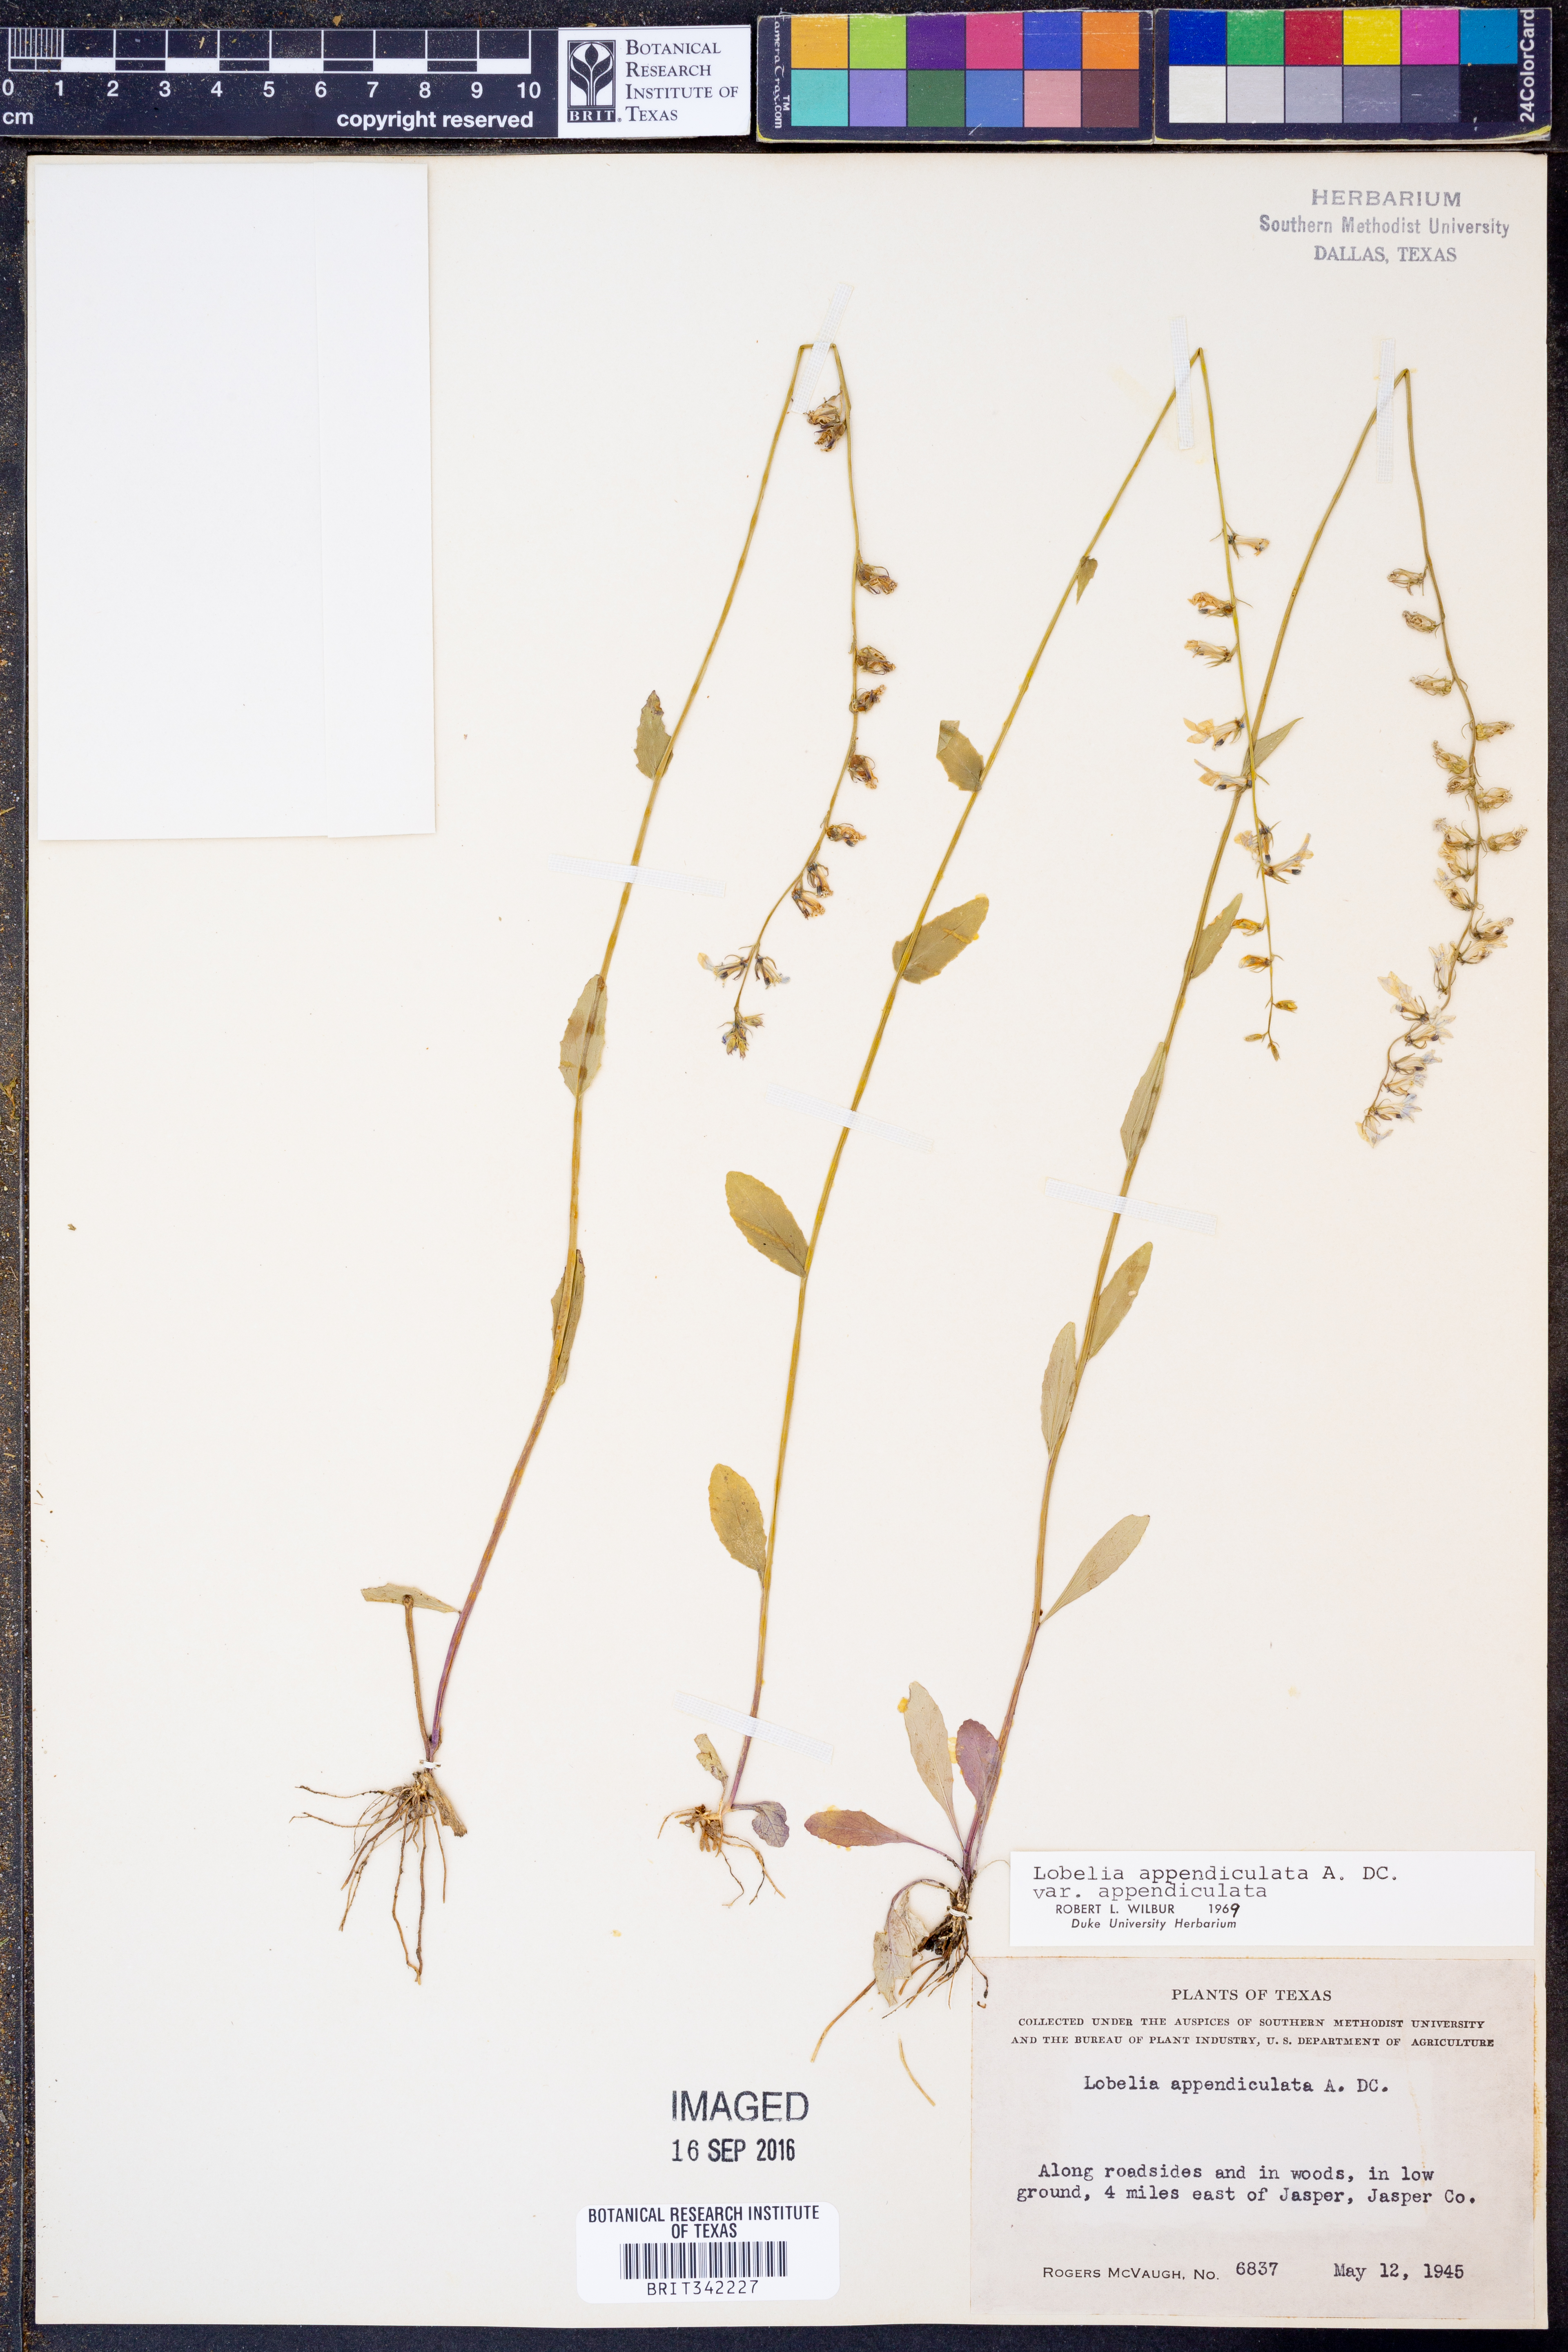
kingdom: Plantae
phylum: Tracheophyta
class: Magnoliopsida
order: Asterales
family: Campanulaceae
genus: Lobelia
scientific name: Lobelia appendiculata
